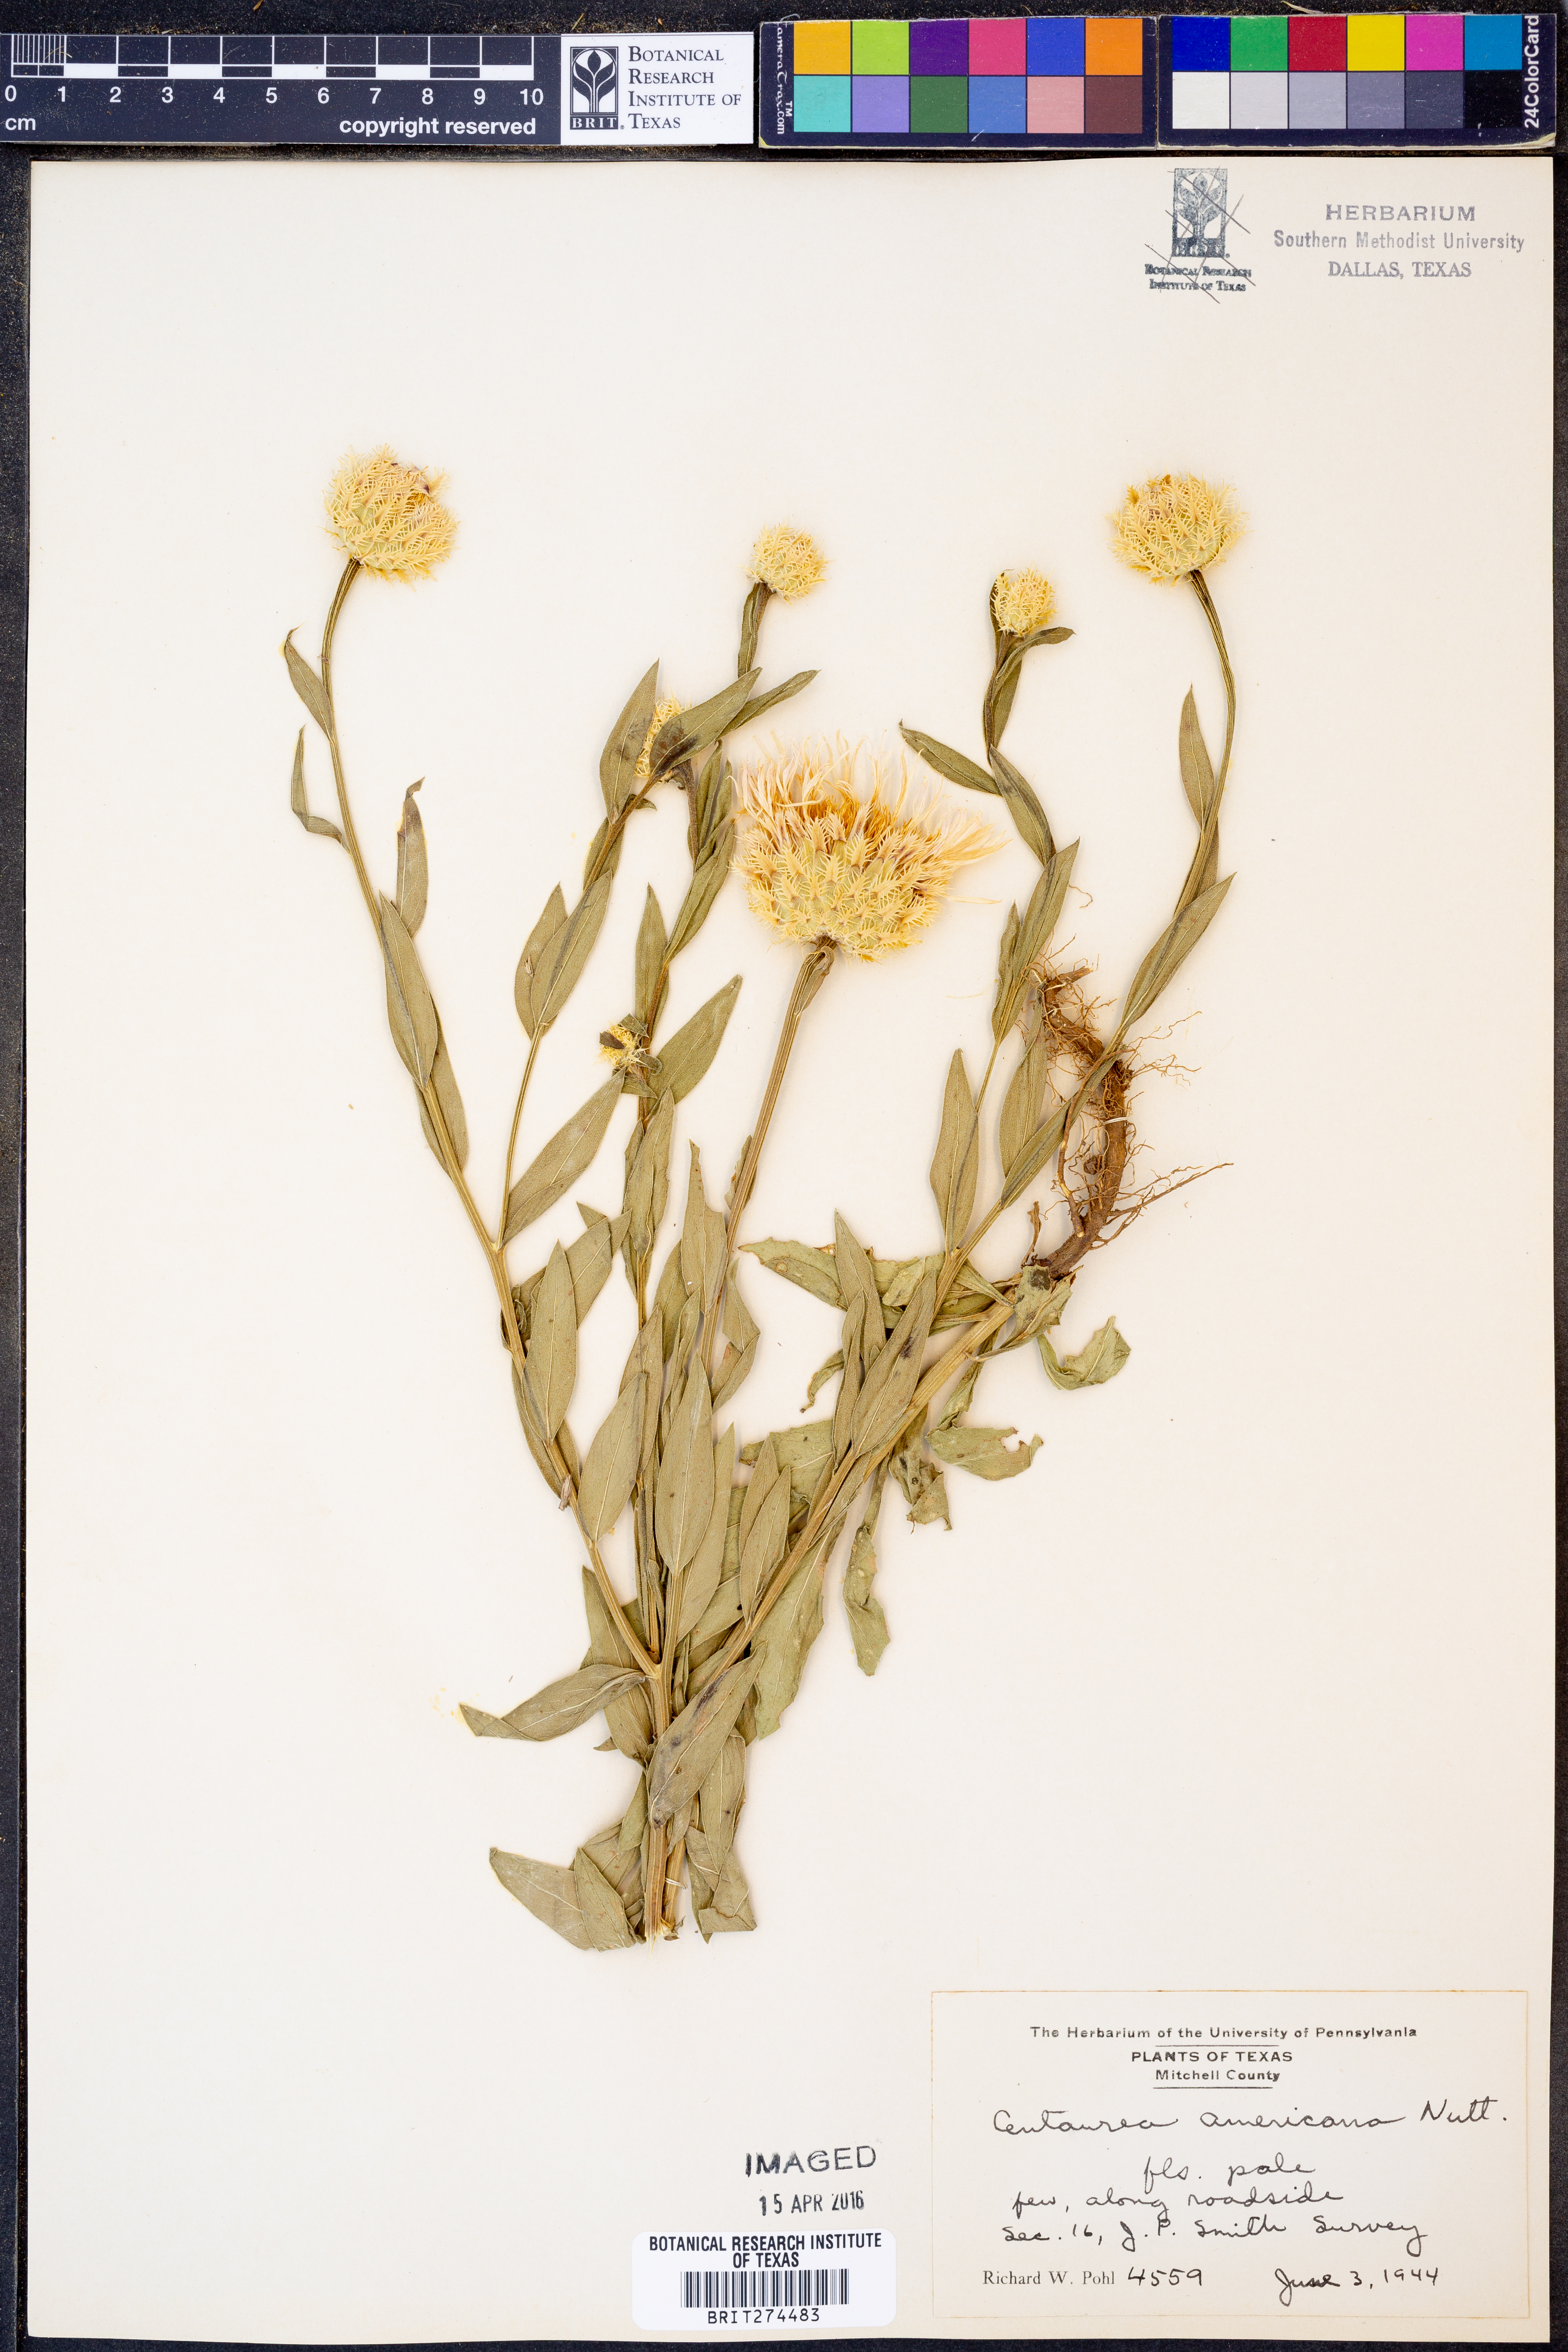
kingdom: Plantae
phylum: Tracheophyta
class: Magnoliopsida
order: Asterales
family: Asteraceae
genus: Plectocephalus
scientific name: Plectocephalus americanus
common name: American basket-flower
